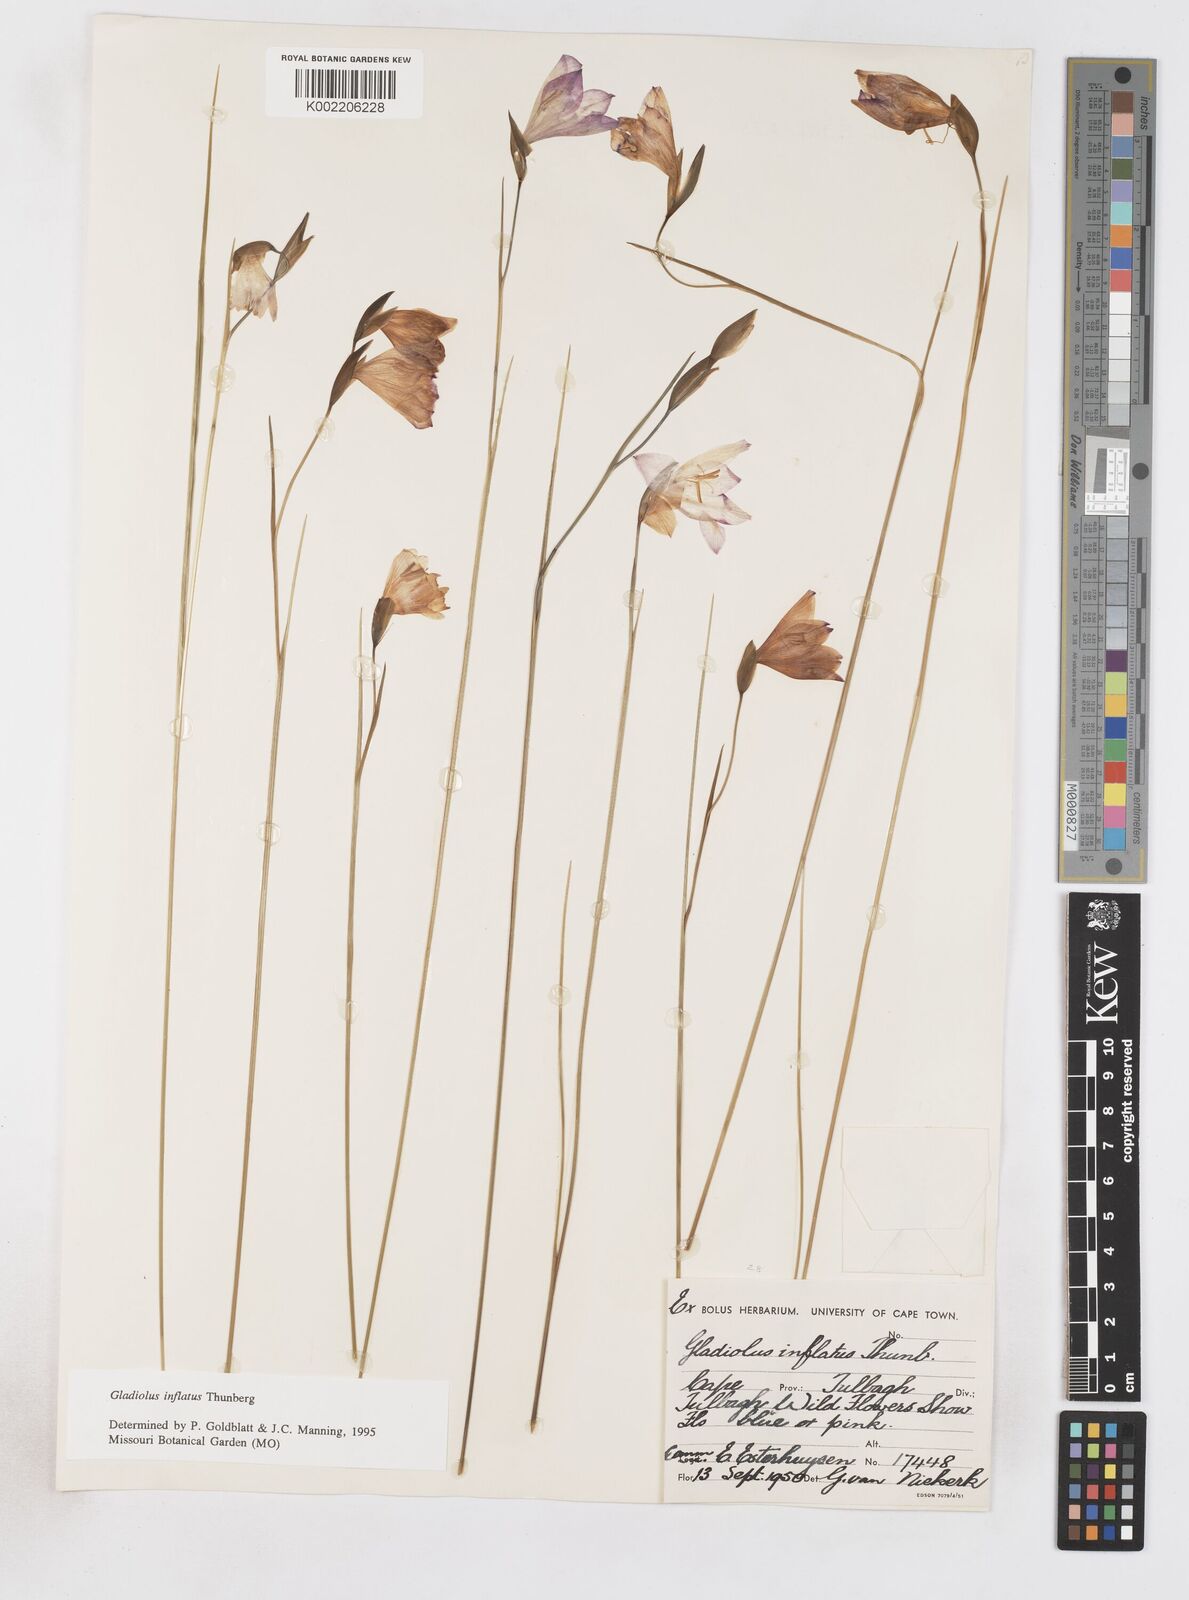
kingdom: Plantae
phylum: Tracheophyta
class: Liliopsida
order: Asparagales
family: Iridaceae
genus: Gladiolus
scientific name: Gladiolus inflatus
